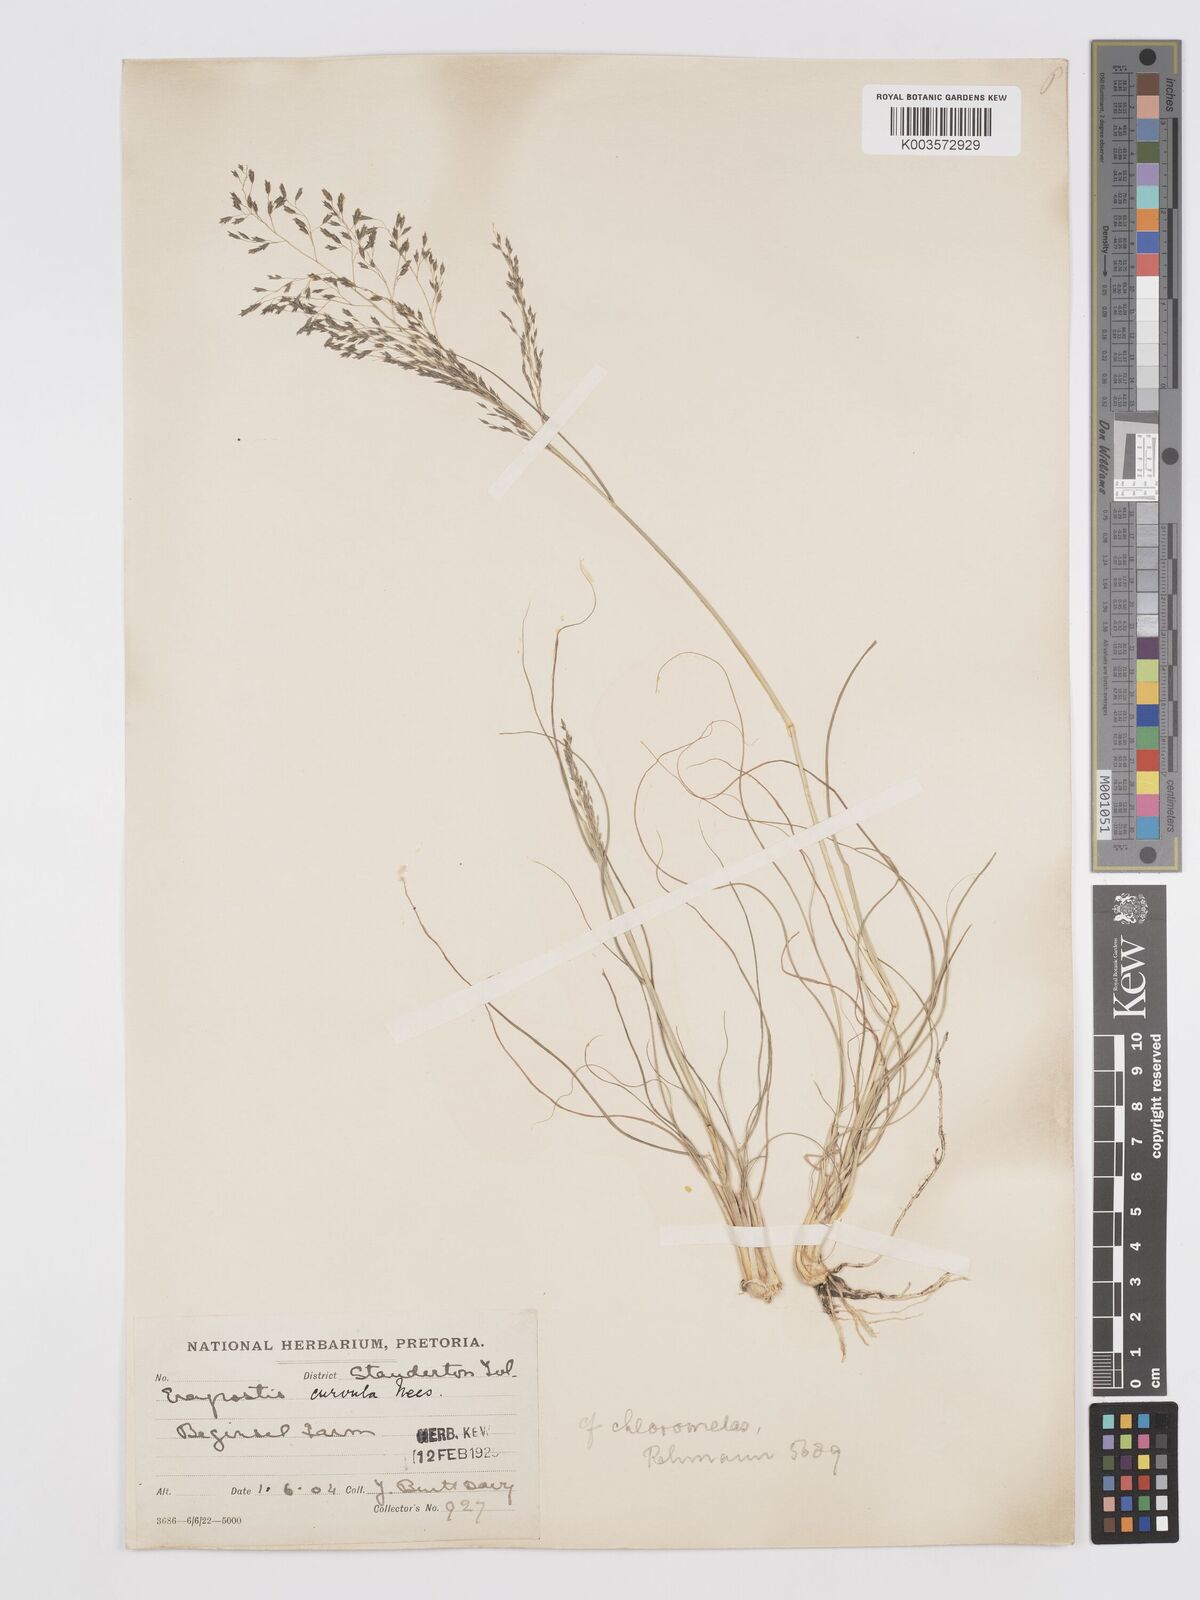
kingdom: Plantae
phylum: Tracheophyta
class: Liliopsida
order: Poales
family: Poaceae
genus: Eragrostis
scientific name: Eragrostis curvula
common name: African love-grass
